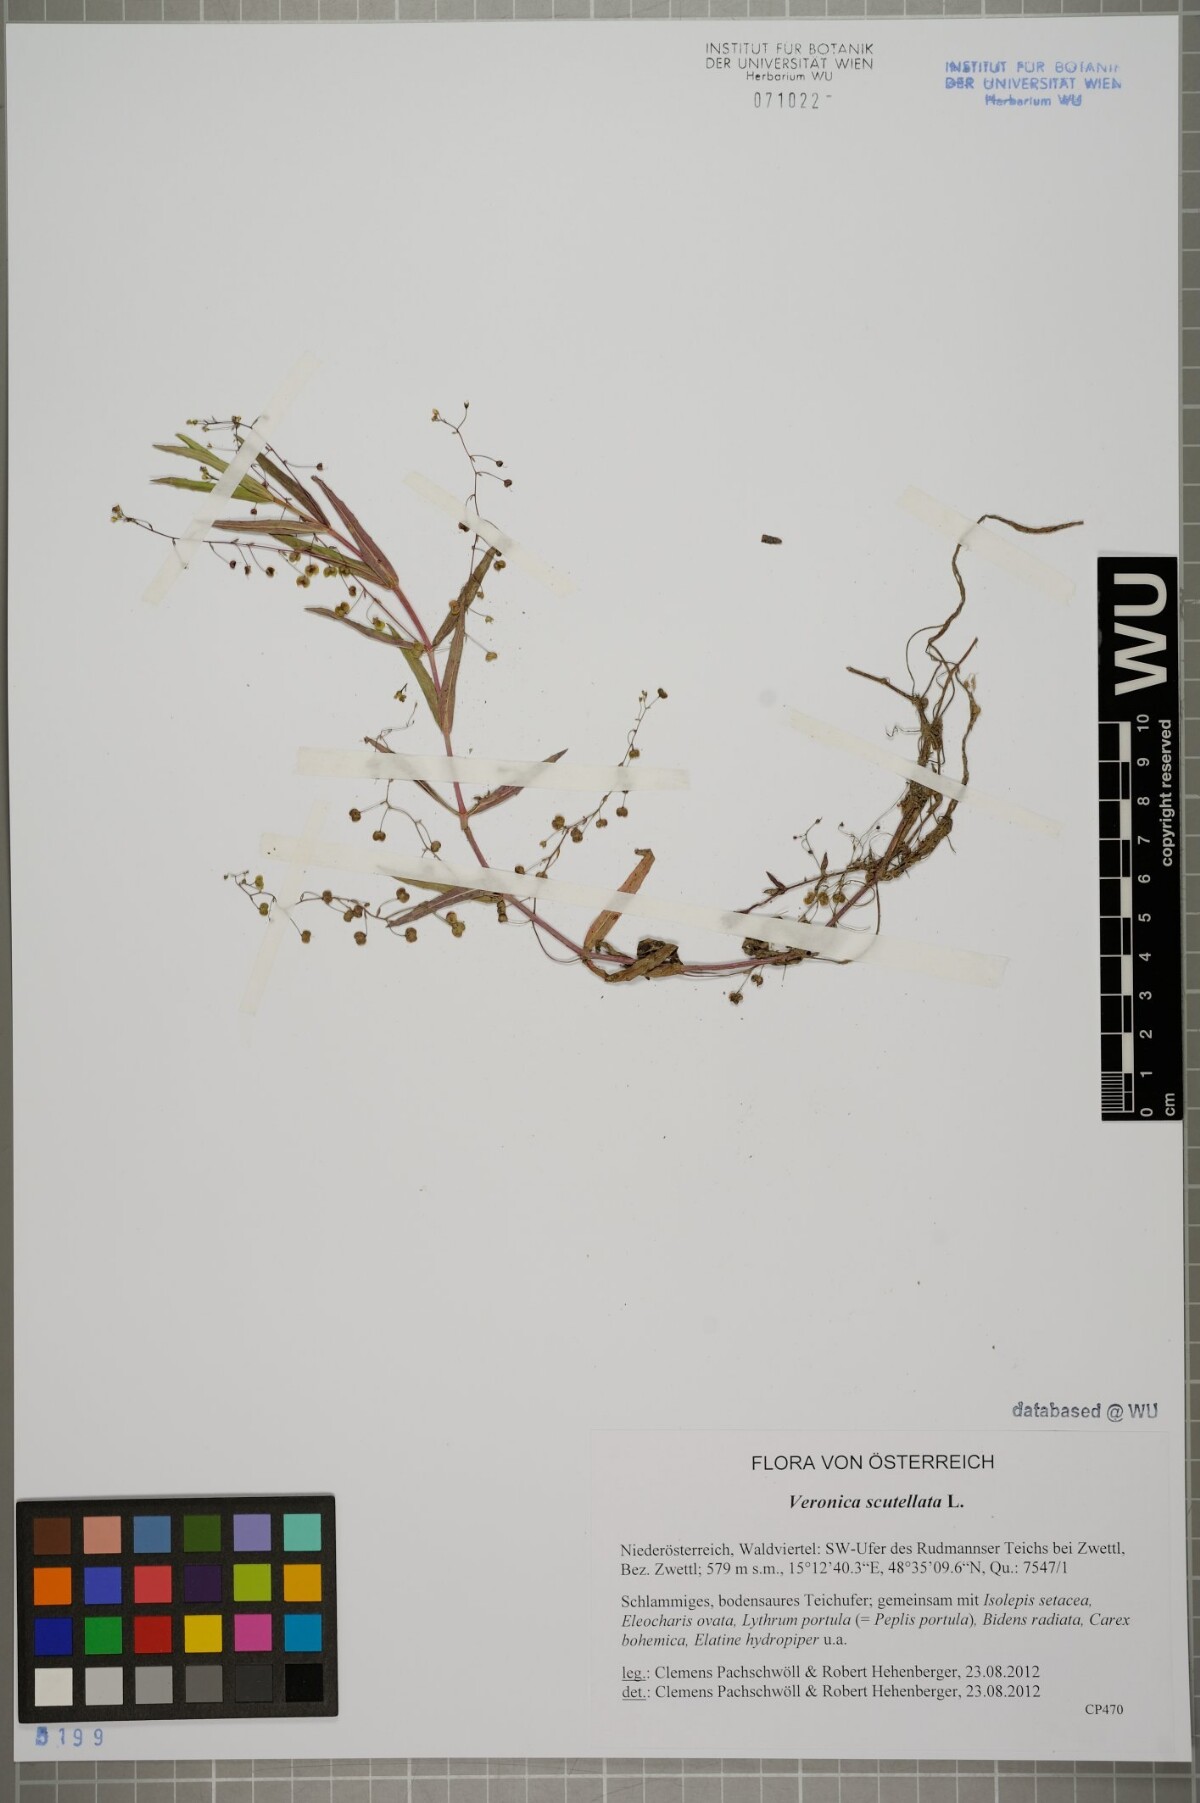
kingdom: Plantae
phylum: Tracheophyta
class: Magnoliopsida
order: Lamiales
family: Plantaginaceae
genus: Veronica
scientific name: Veronica scutellata
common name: Marsh speedwell
